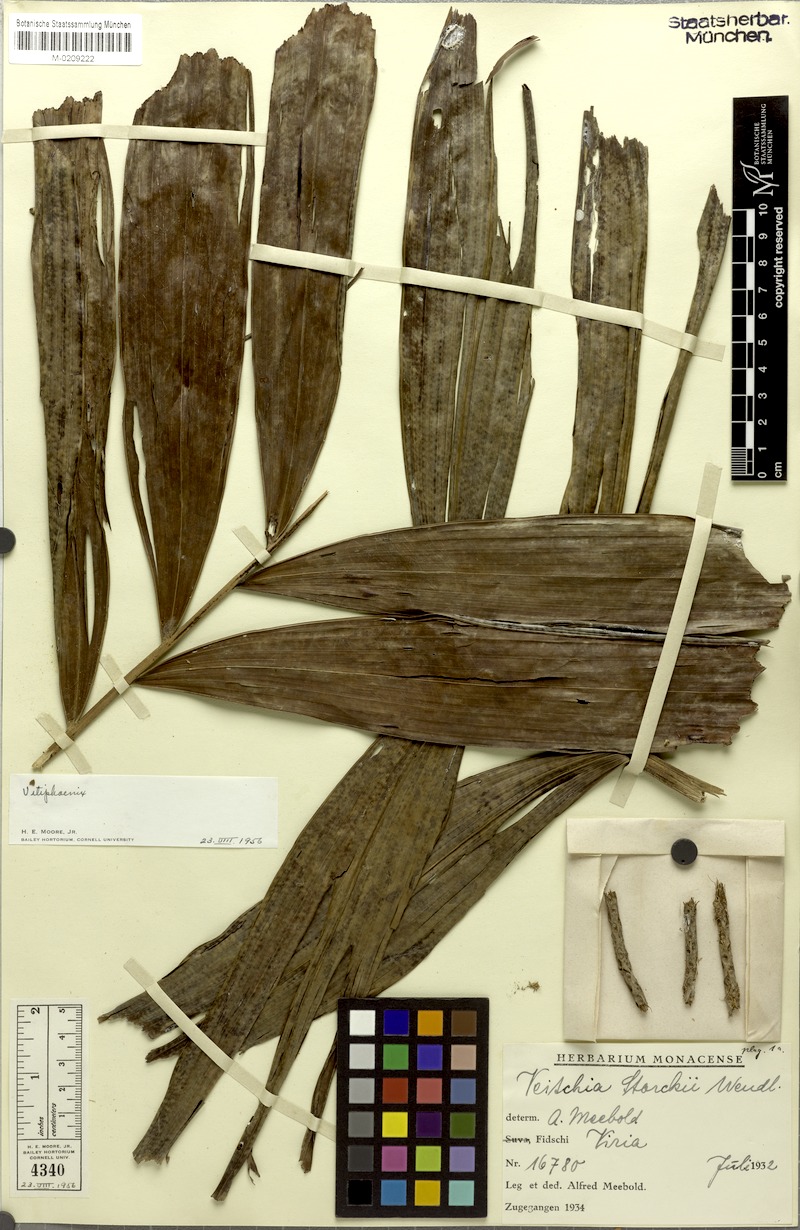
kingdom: Plantae
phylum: Tracheophyta
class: Liliopsida
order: Arecales
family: Arecaceae
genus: Neoveitchia
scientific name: Neoveitchia storckii
